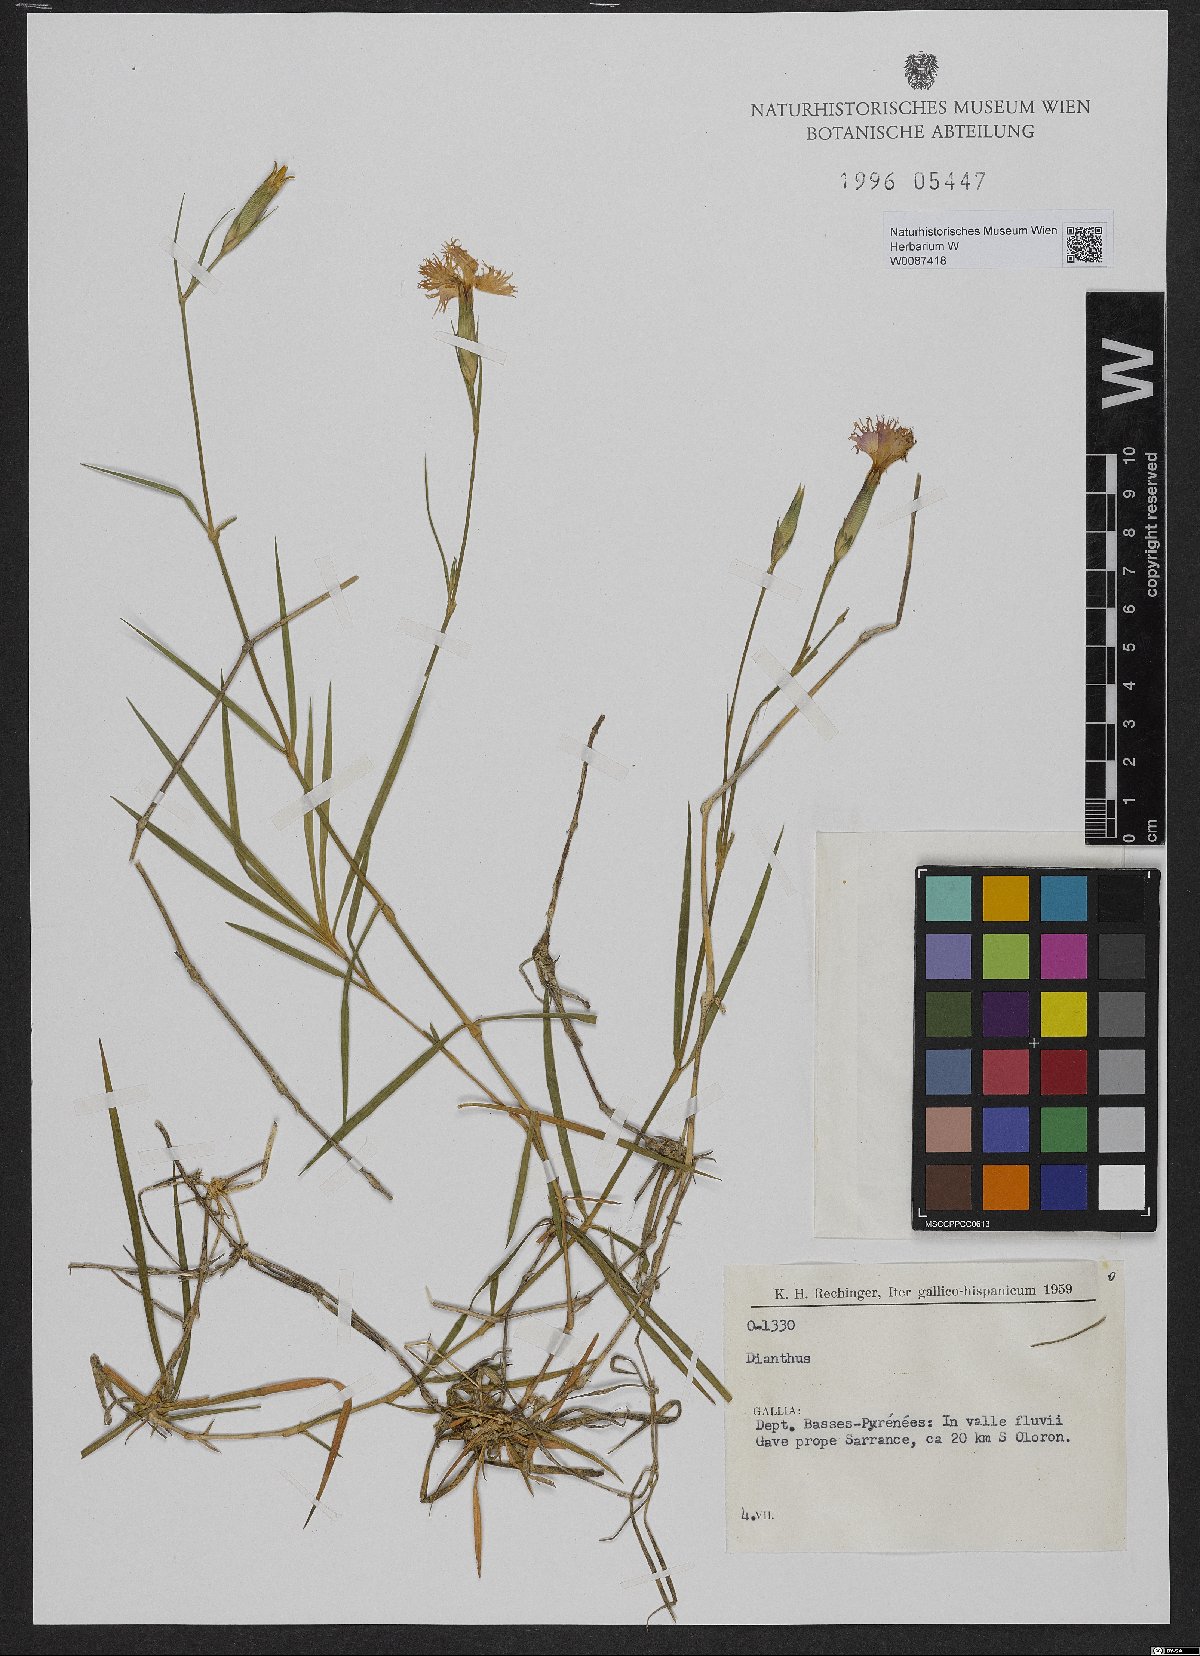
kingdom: Plantae
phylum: Tracheophyta
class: Magnoliopsida
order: Caryophyllales
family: Caryophyllaceae
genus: Dianthus
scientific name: Dianthus
